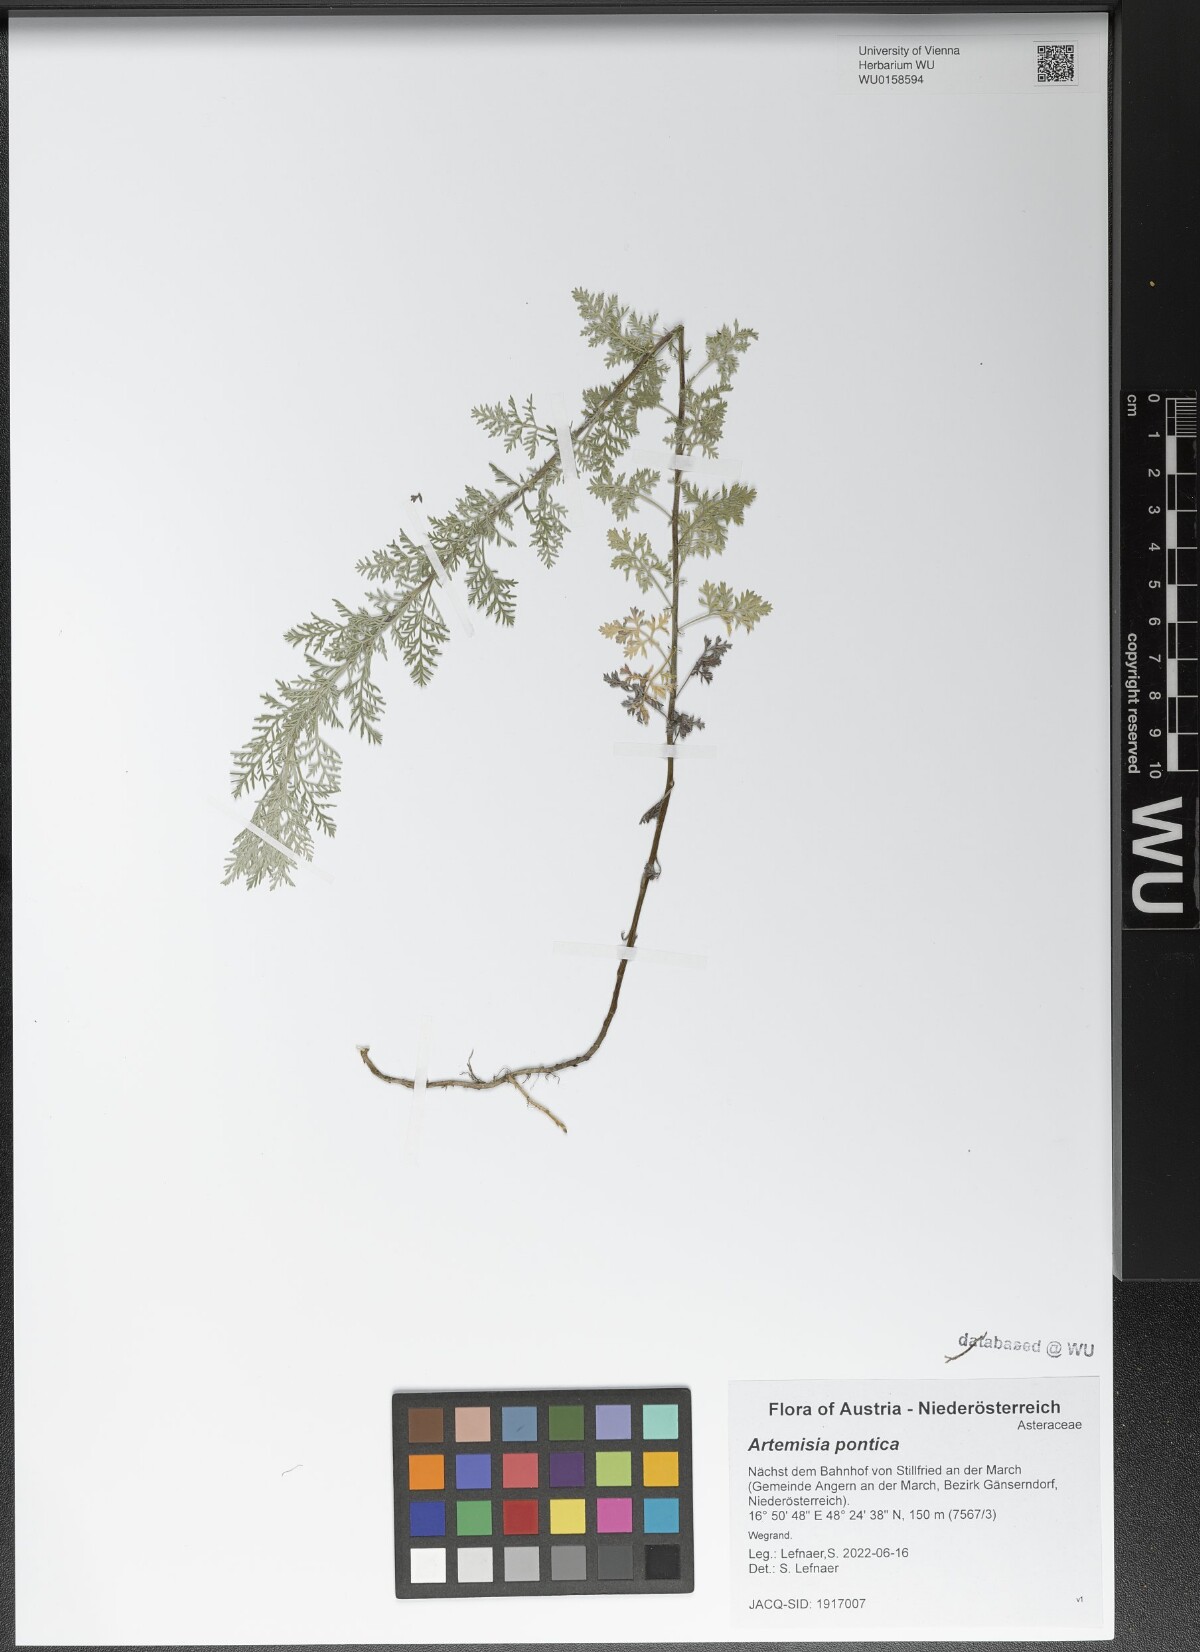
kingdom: Plantae
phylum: Tracheophyta
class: Magnoliopsida
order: Asterales
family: Asteraceae
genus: Artemisia
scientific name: Artemisia pontica
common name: Roman wormwood
